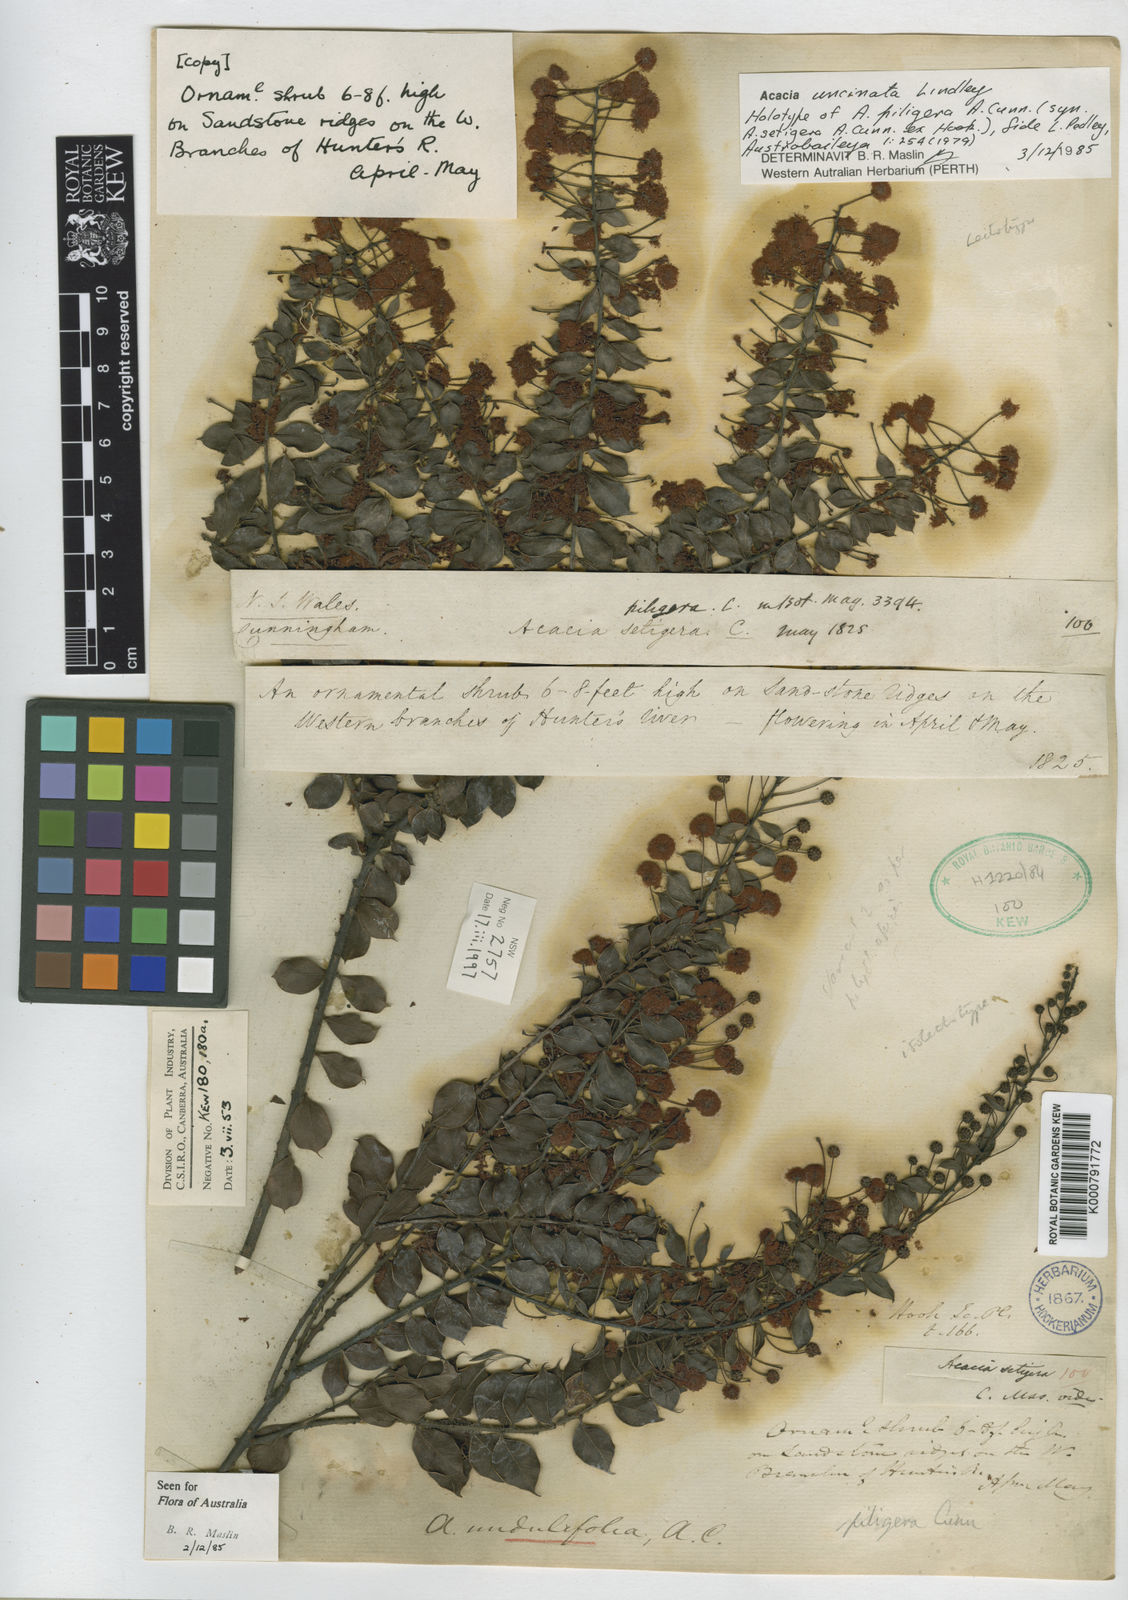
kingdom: Plantae
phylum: Tracheophyta
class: Magnoliopsida
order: Fabales
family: Fabaceae
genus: Acacia
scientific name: Acacia undulifolia
